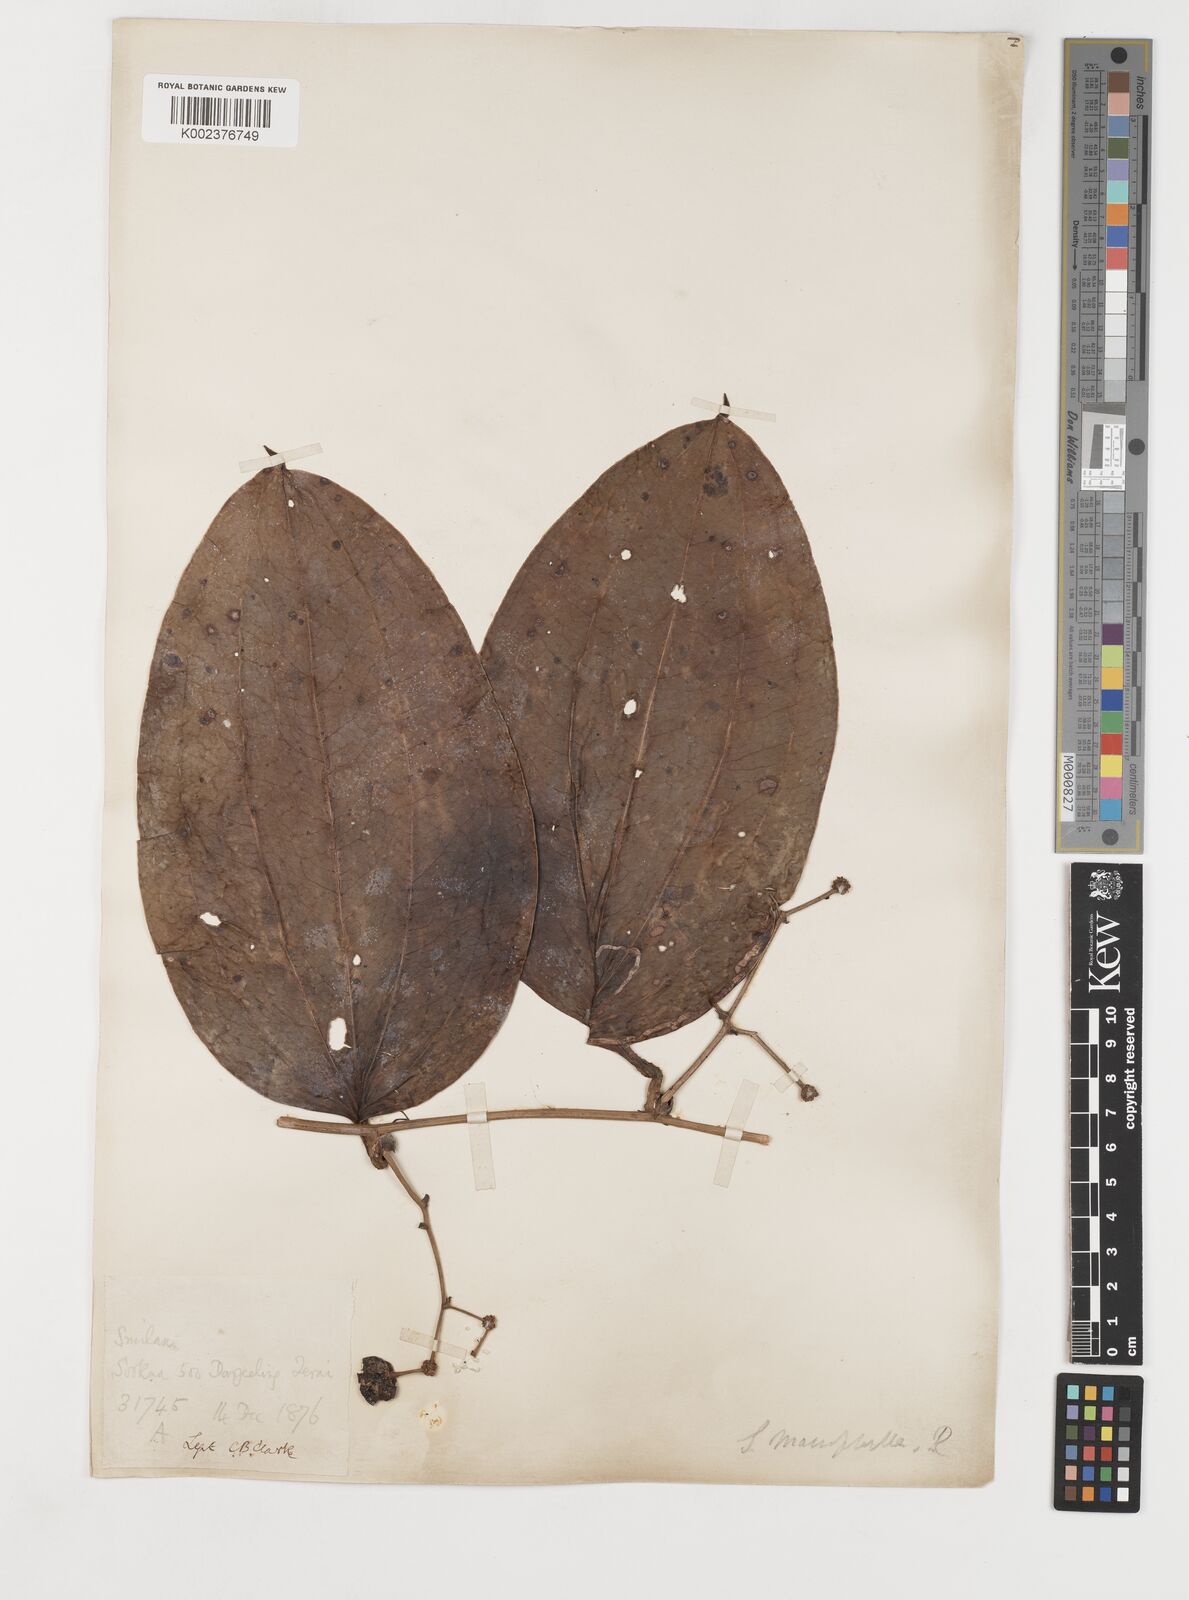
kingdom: Plantae
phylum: Tracheophyta
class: Liliopsida
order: Liliales
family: Smilacaceae
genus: Smilax
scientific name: Smilax ovalifolia
